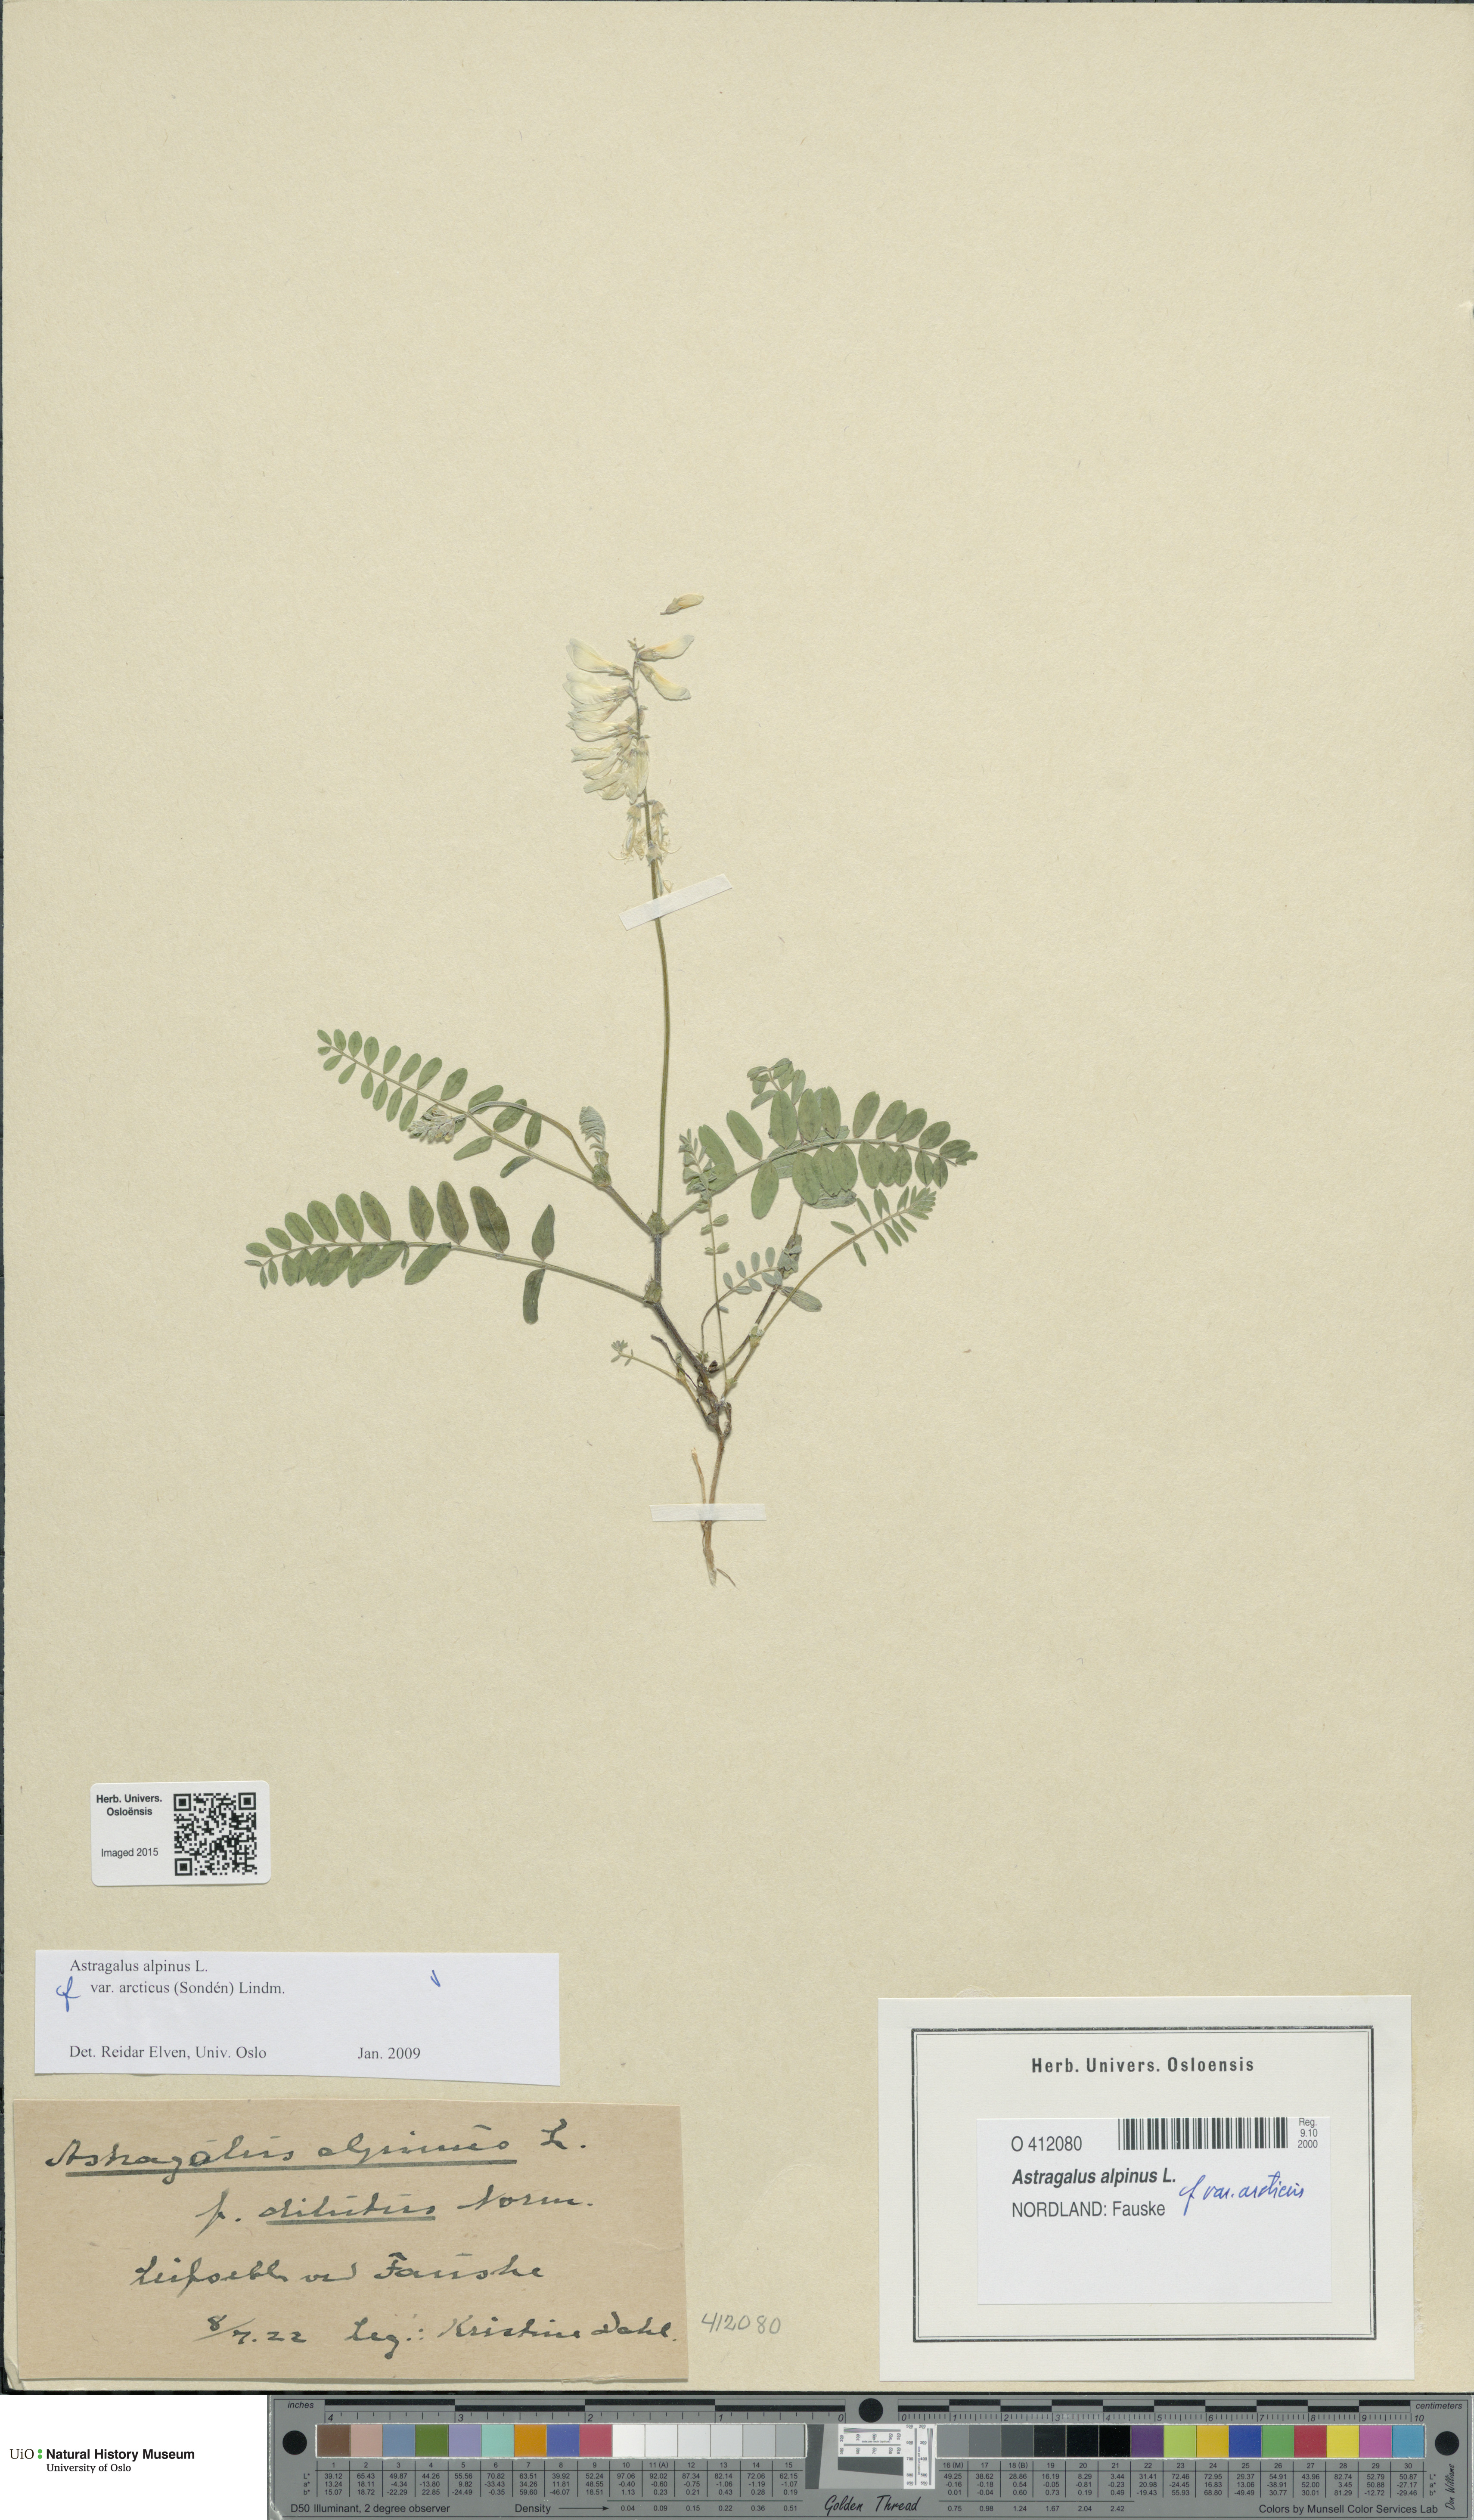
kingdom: Plantae
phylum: Tracheophyta
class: Magnoliopsida
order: Fabales
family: Fabaceae
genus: Astragalus
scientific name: Astragalus norvegicus
